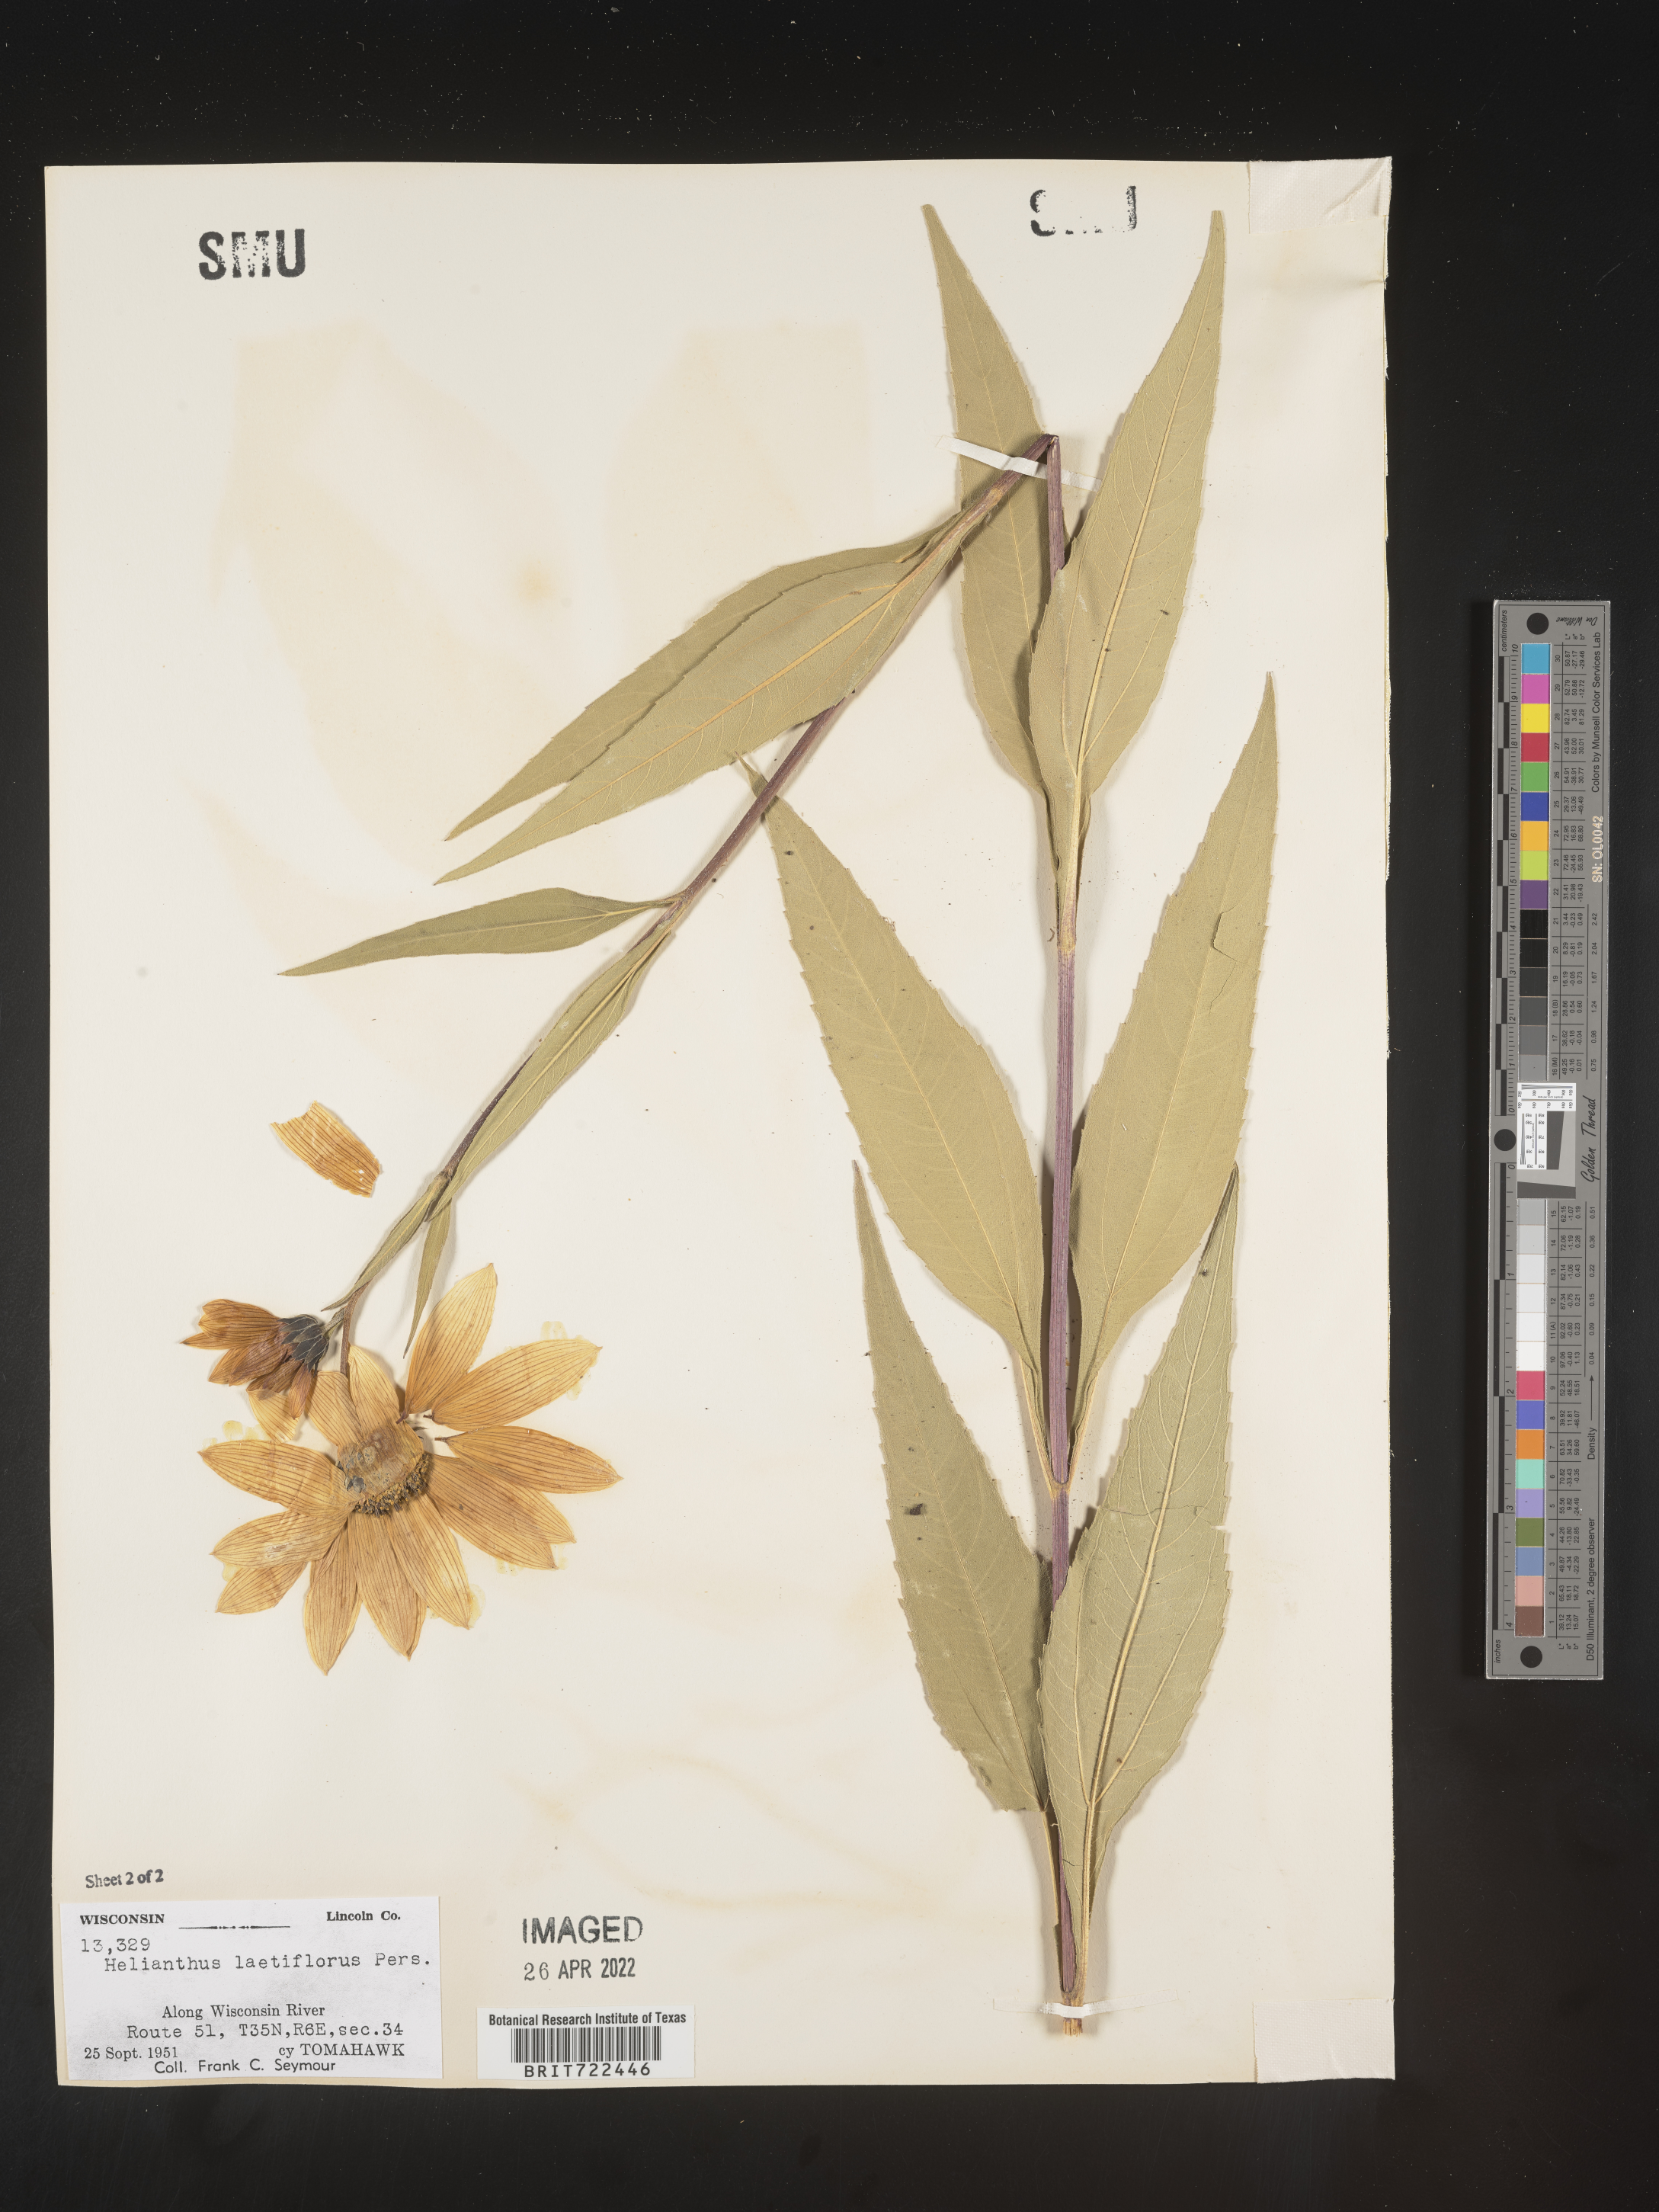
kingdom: Plantae
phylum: Tracheophyta
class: Magnoliopsida
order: Asterales
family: Asteraceae
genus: Helianthus
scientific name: Helianthus laetiflorus
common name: Perennial sunflower
